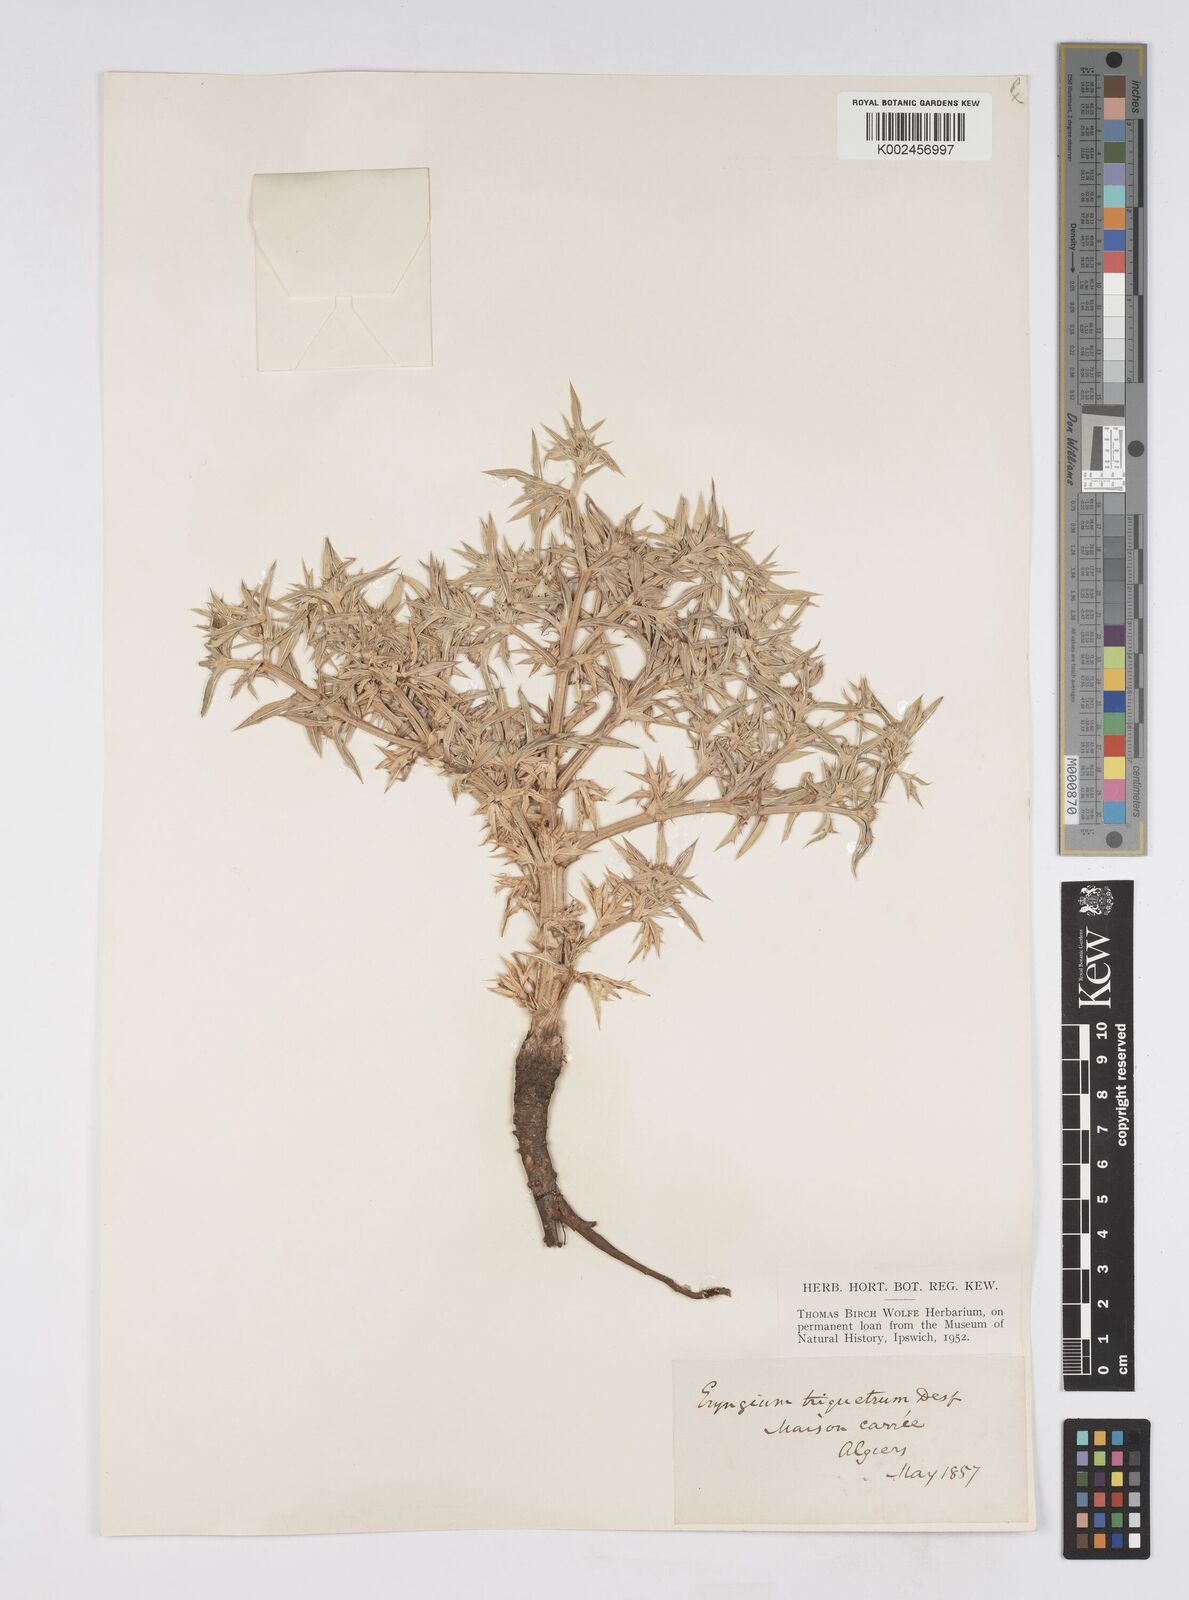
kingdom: Plantae
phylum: Tracheophyta
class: Magnoliopsida
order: Apiales
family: Apiaceae
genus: Eryngium
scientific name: Eryngium triquetrum
